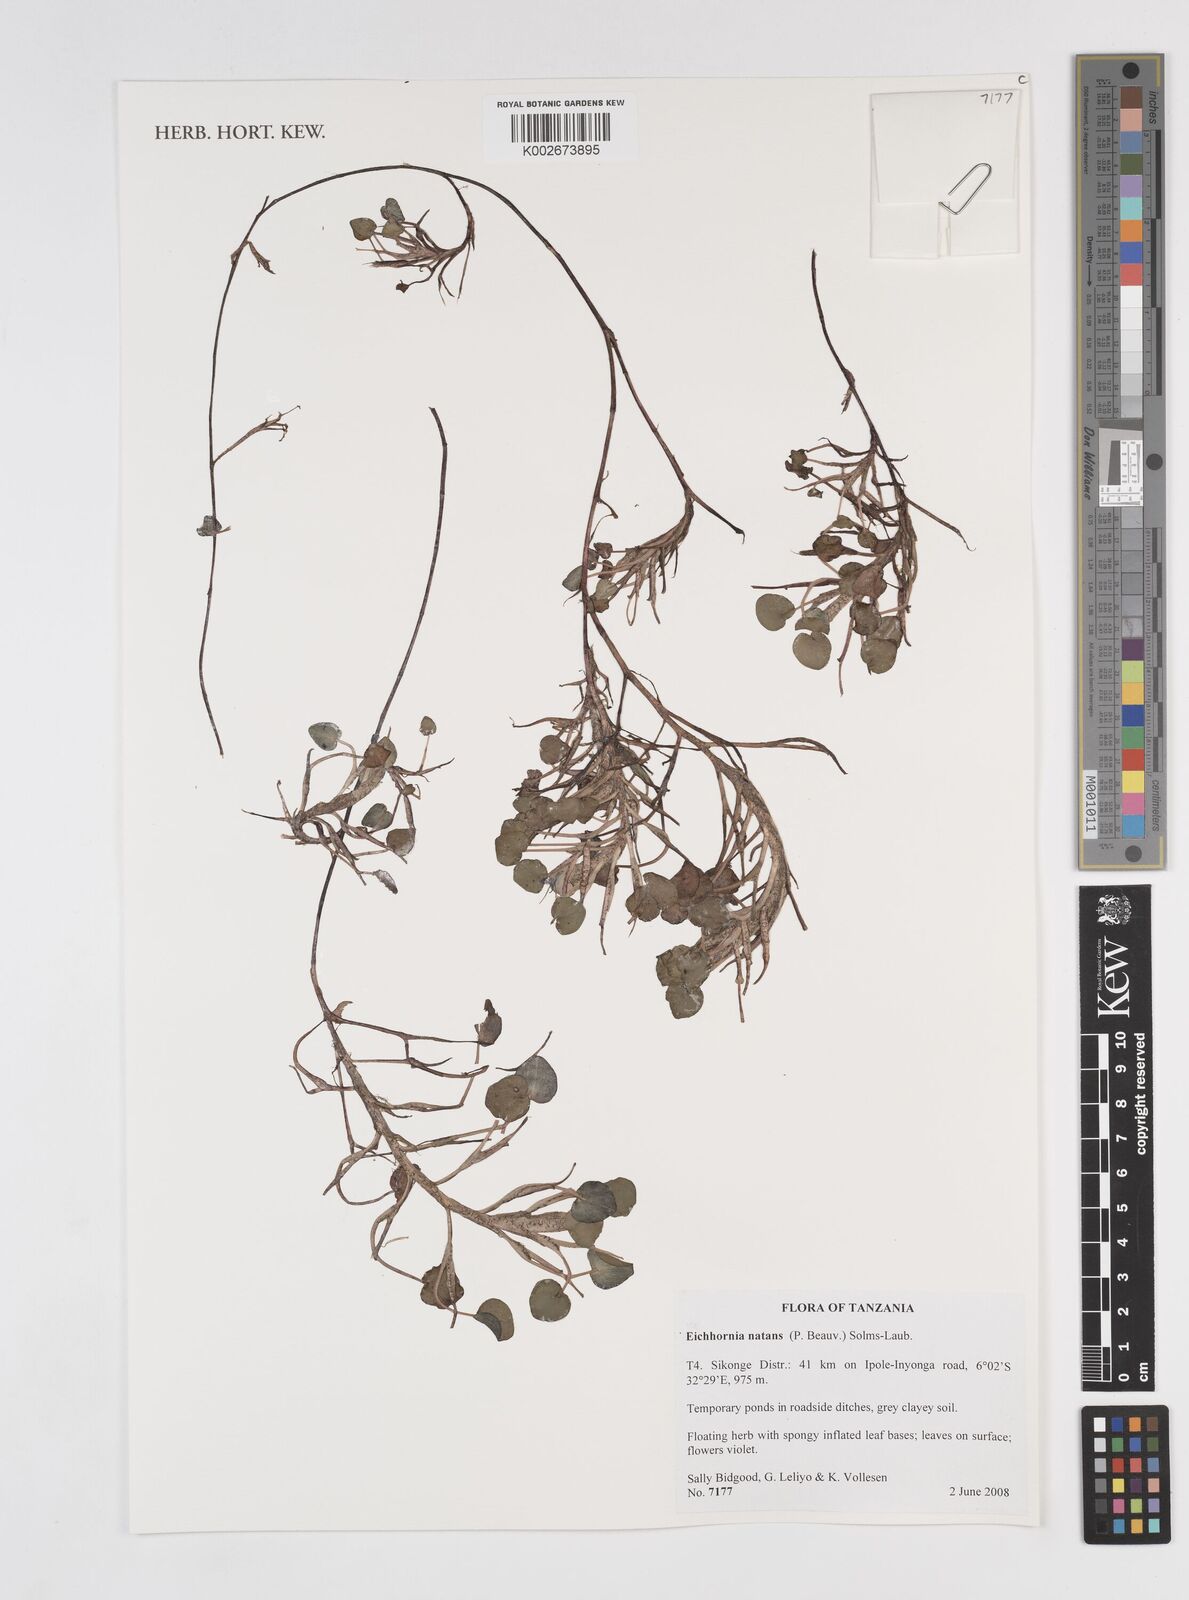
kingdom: Plantae
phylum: Tracheophyta
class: Liliopsida
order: Commelinales
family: Pontederiaceae
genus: Pontederia
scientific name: Pontederia diversifolia
